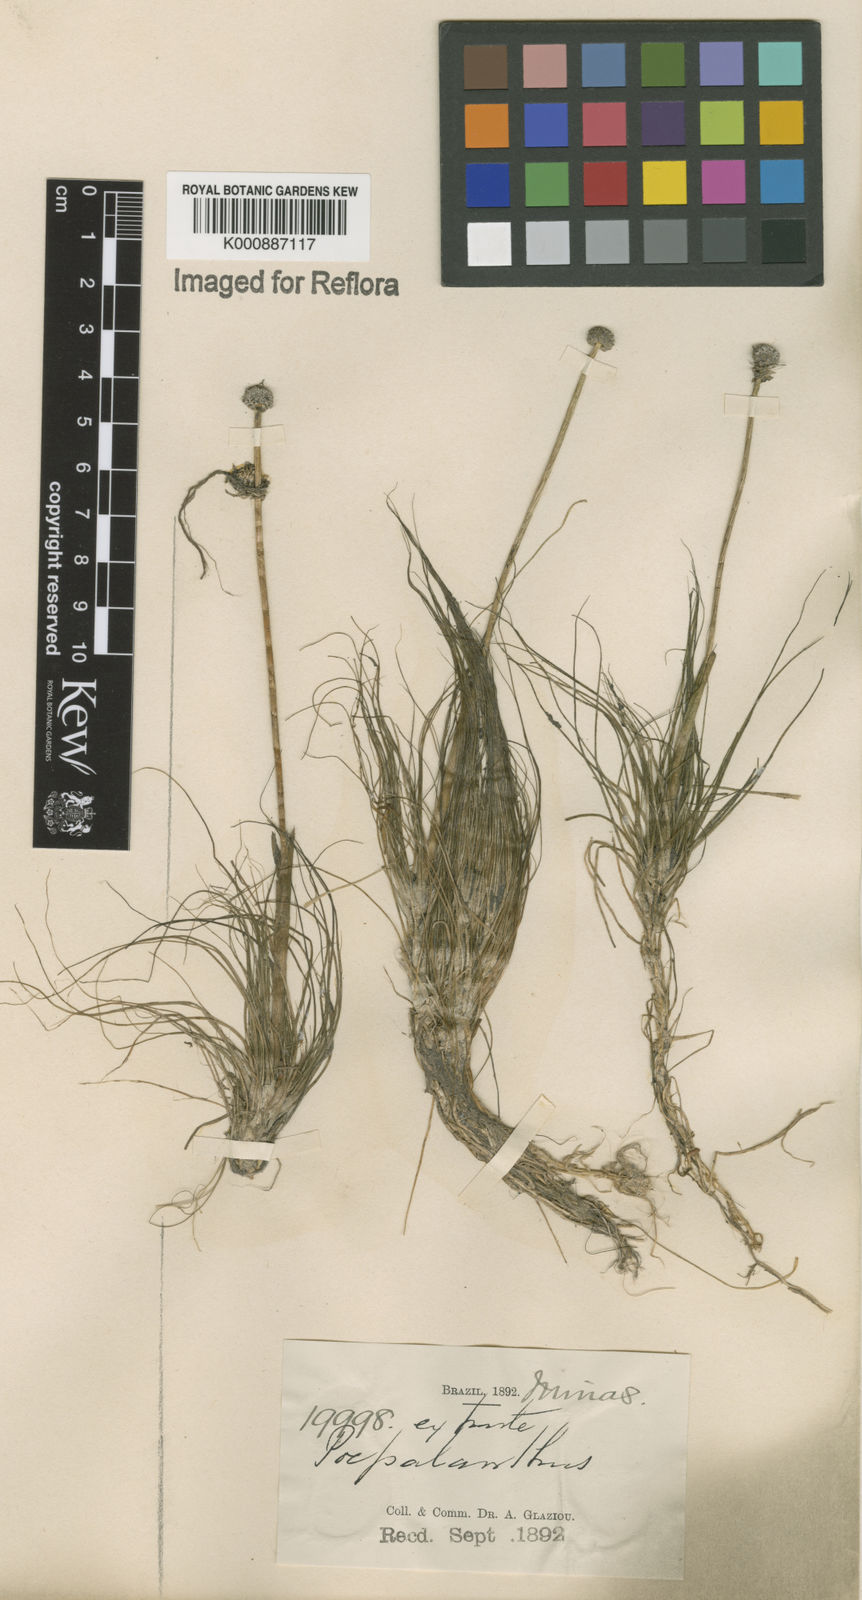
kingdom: Plantae
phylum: Tracheophyta
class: Liliopsida
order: Poales
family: Eriocaulaceae
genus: Eriocaulon
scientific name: Eriocaulon
